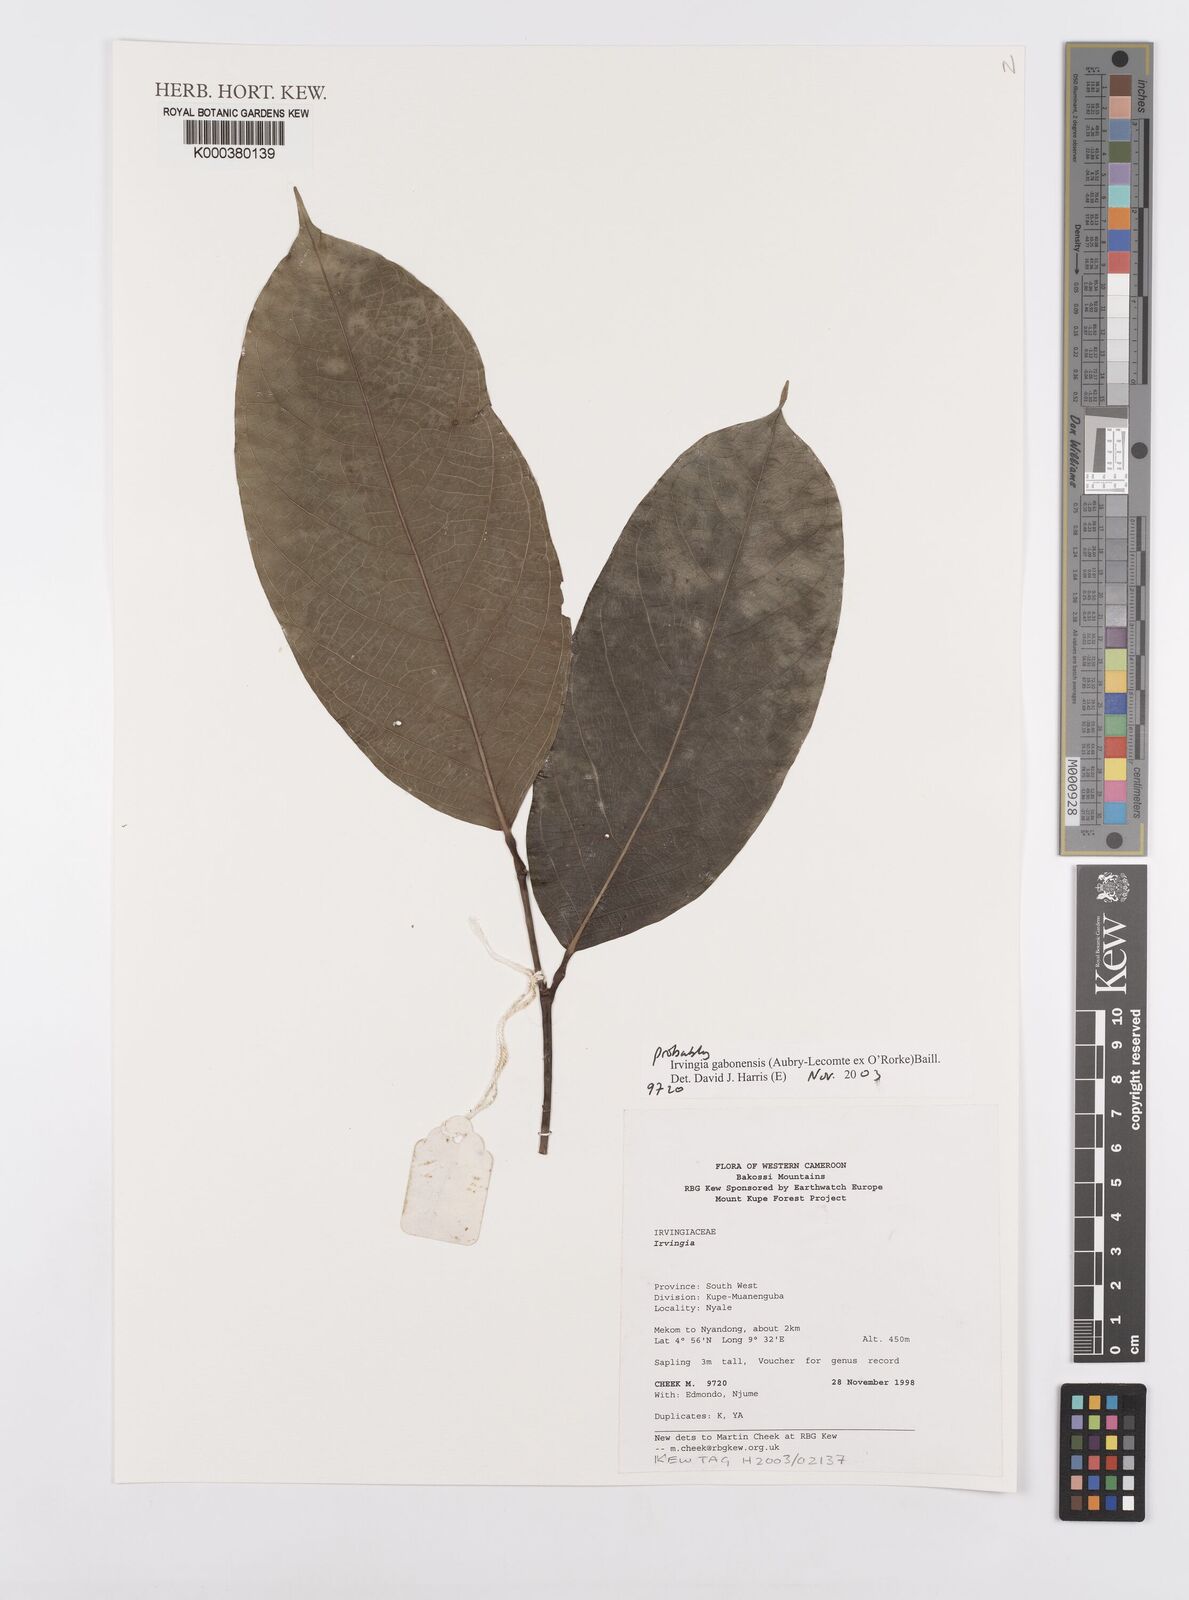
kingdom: Plantae
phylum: Tracheophyta
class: Magnoliopsida
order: Malpighiales
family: Irvingiaceae
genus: Irvingia
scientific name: Irvingia gabonensis
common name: Rainy season bush-mango
